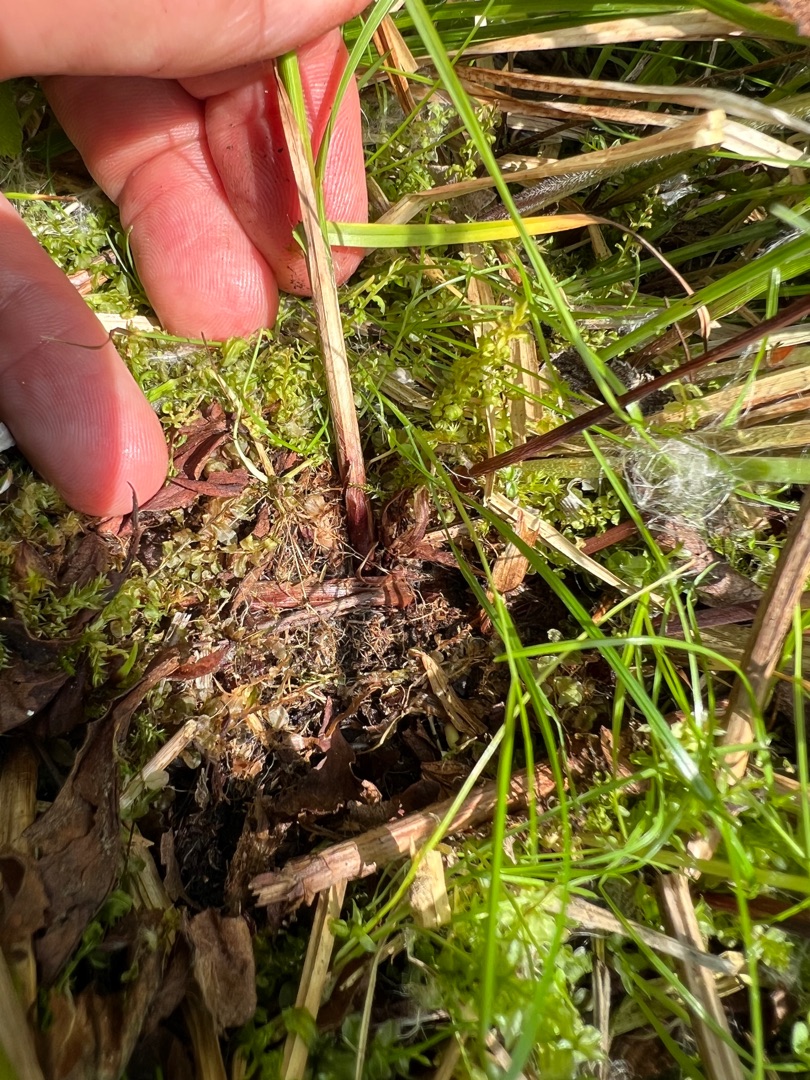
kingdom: Plantae
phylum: Tracheophyta
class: Liliopsida
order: Poales
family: Cyperaceae
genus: Carex
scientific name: Carex vesicaria
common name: Blære-star
